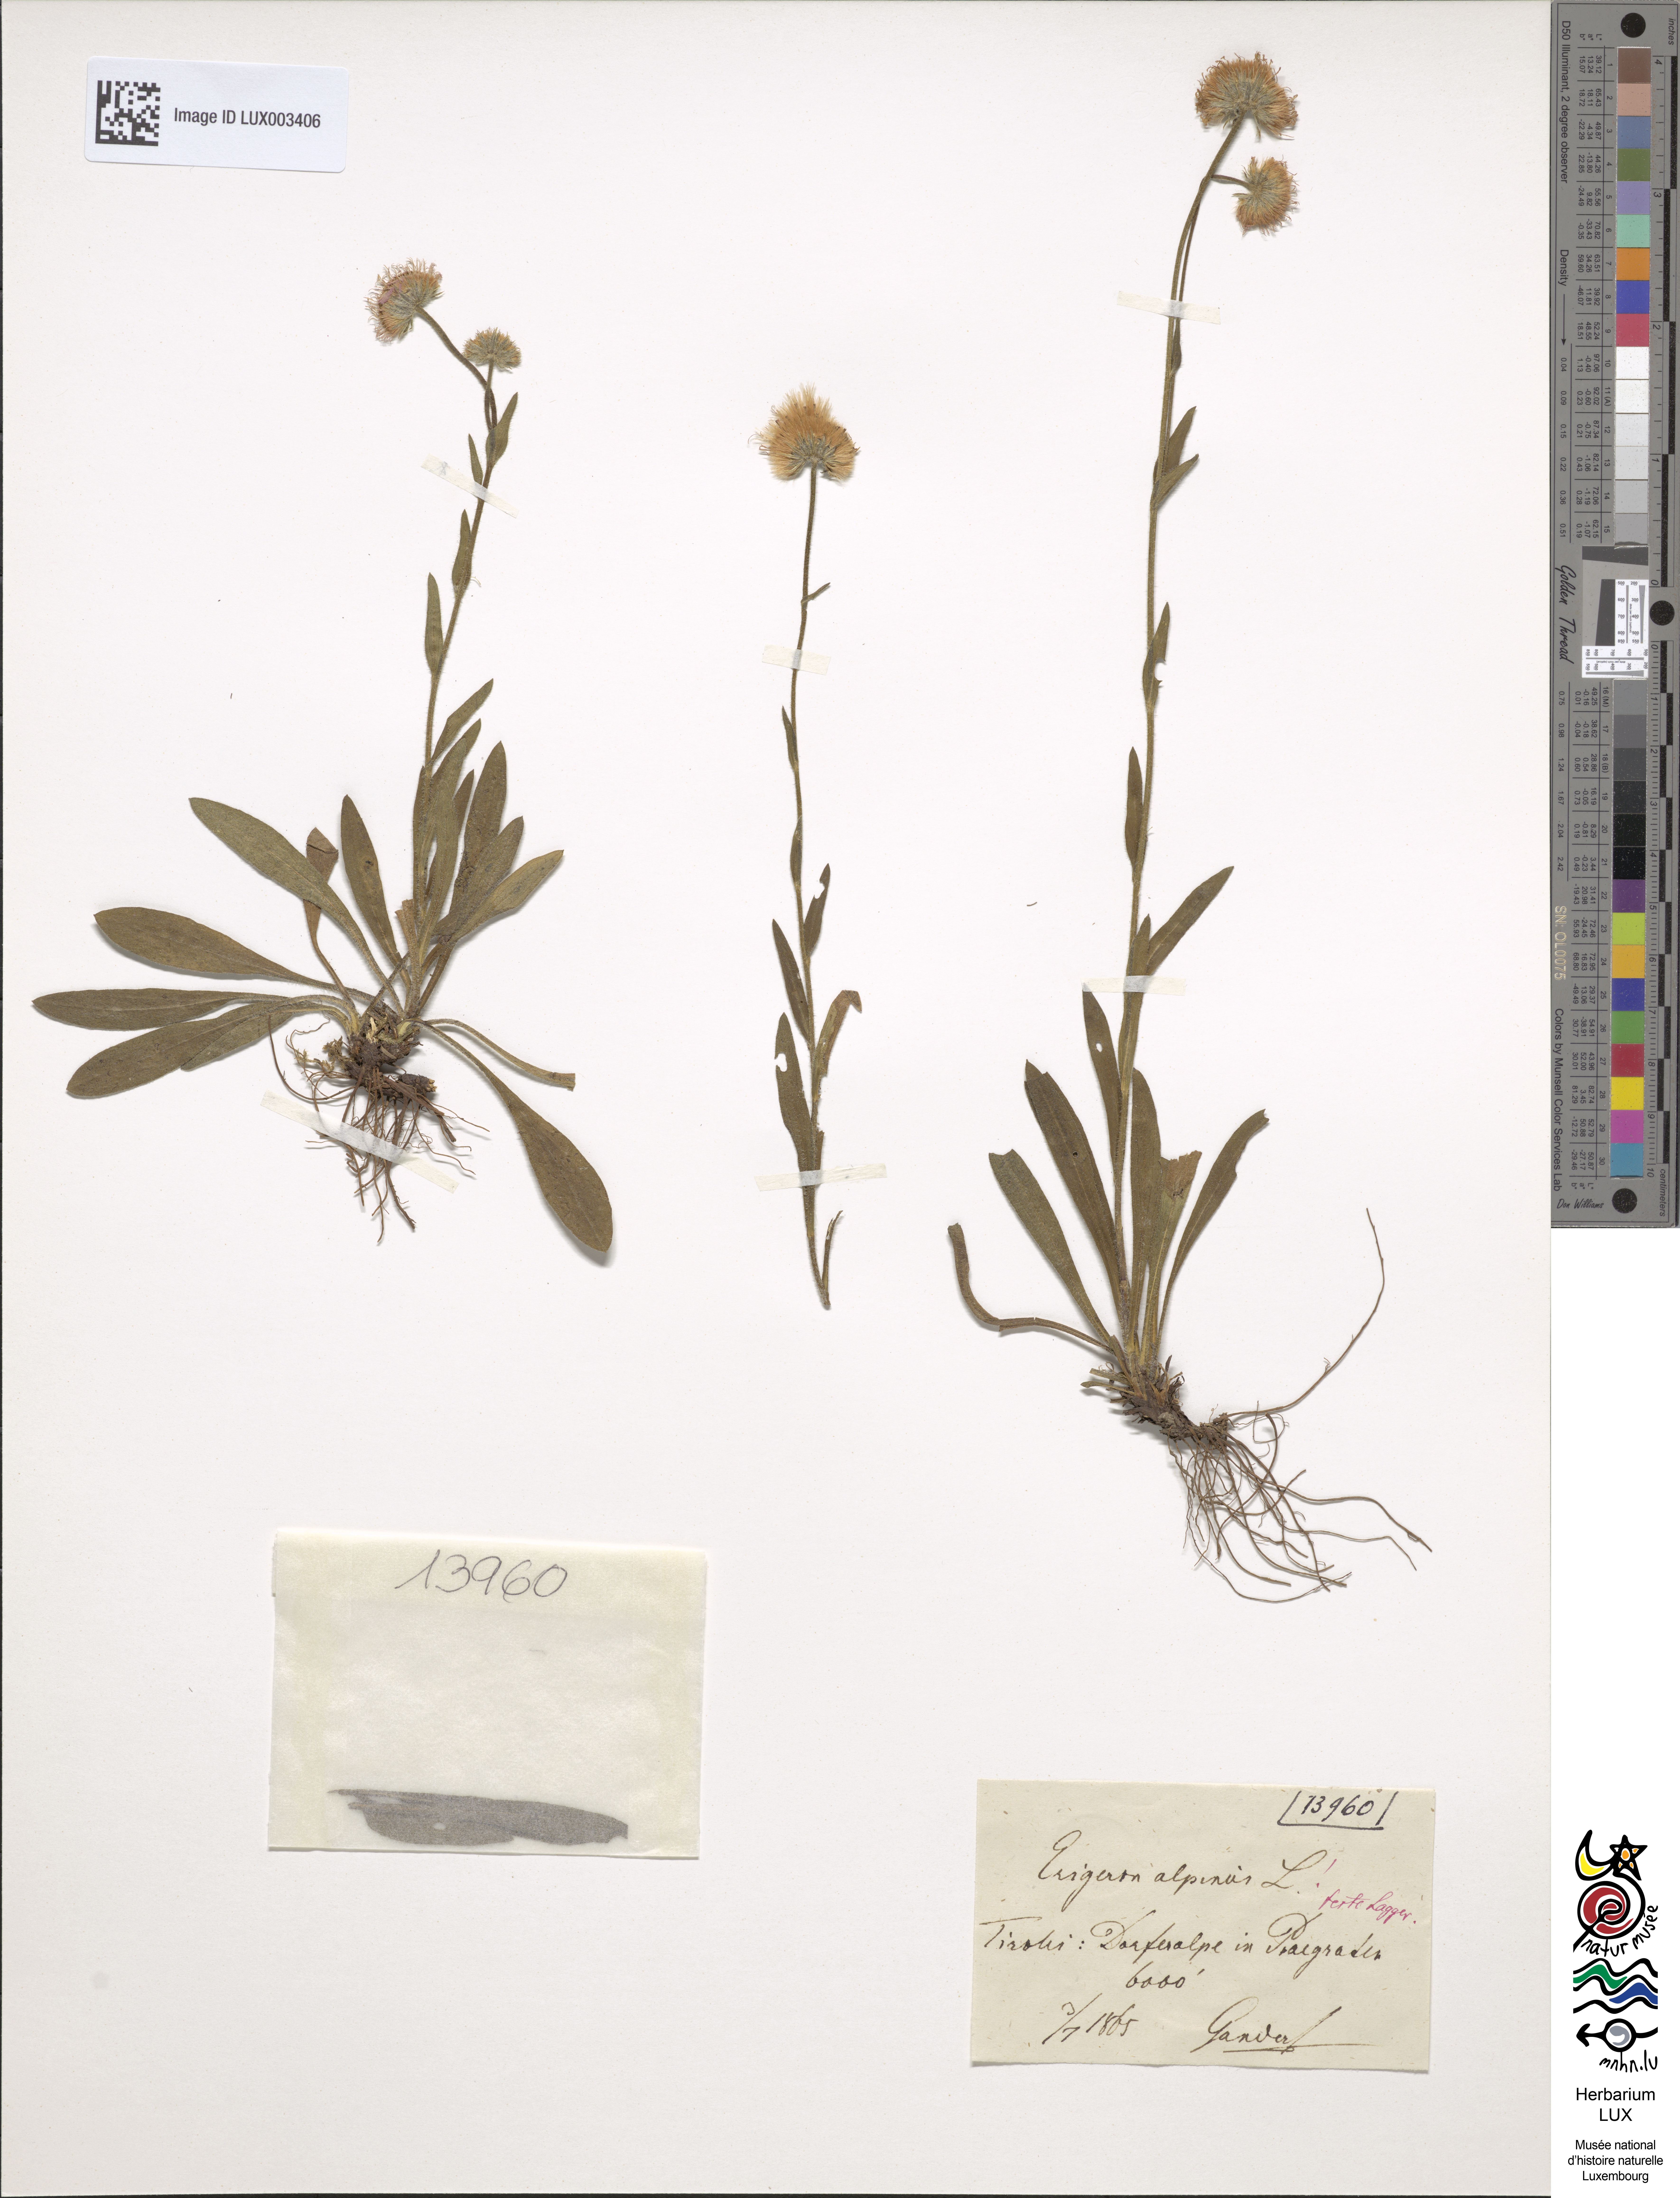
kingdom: Plantae
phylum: Tracheophyta
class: Magnoliopsida
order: Asterales
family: Asteraceae
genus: Erigeron
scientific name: Erigeron alpinus
